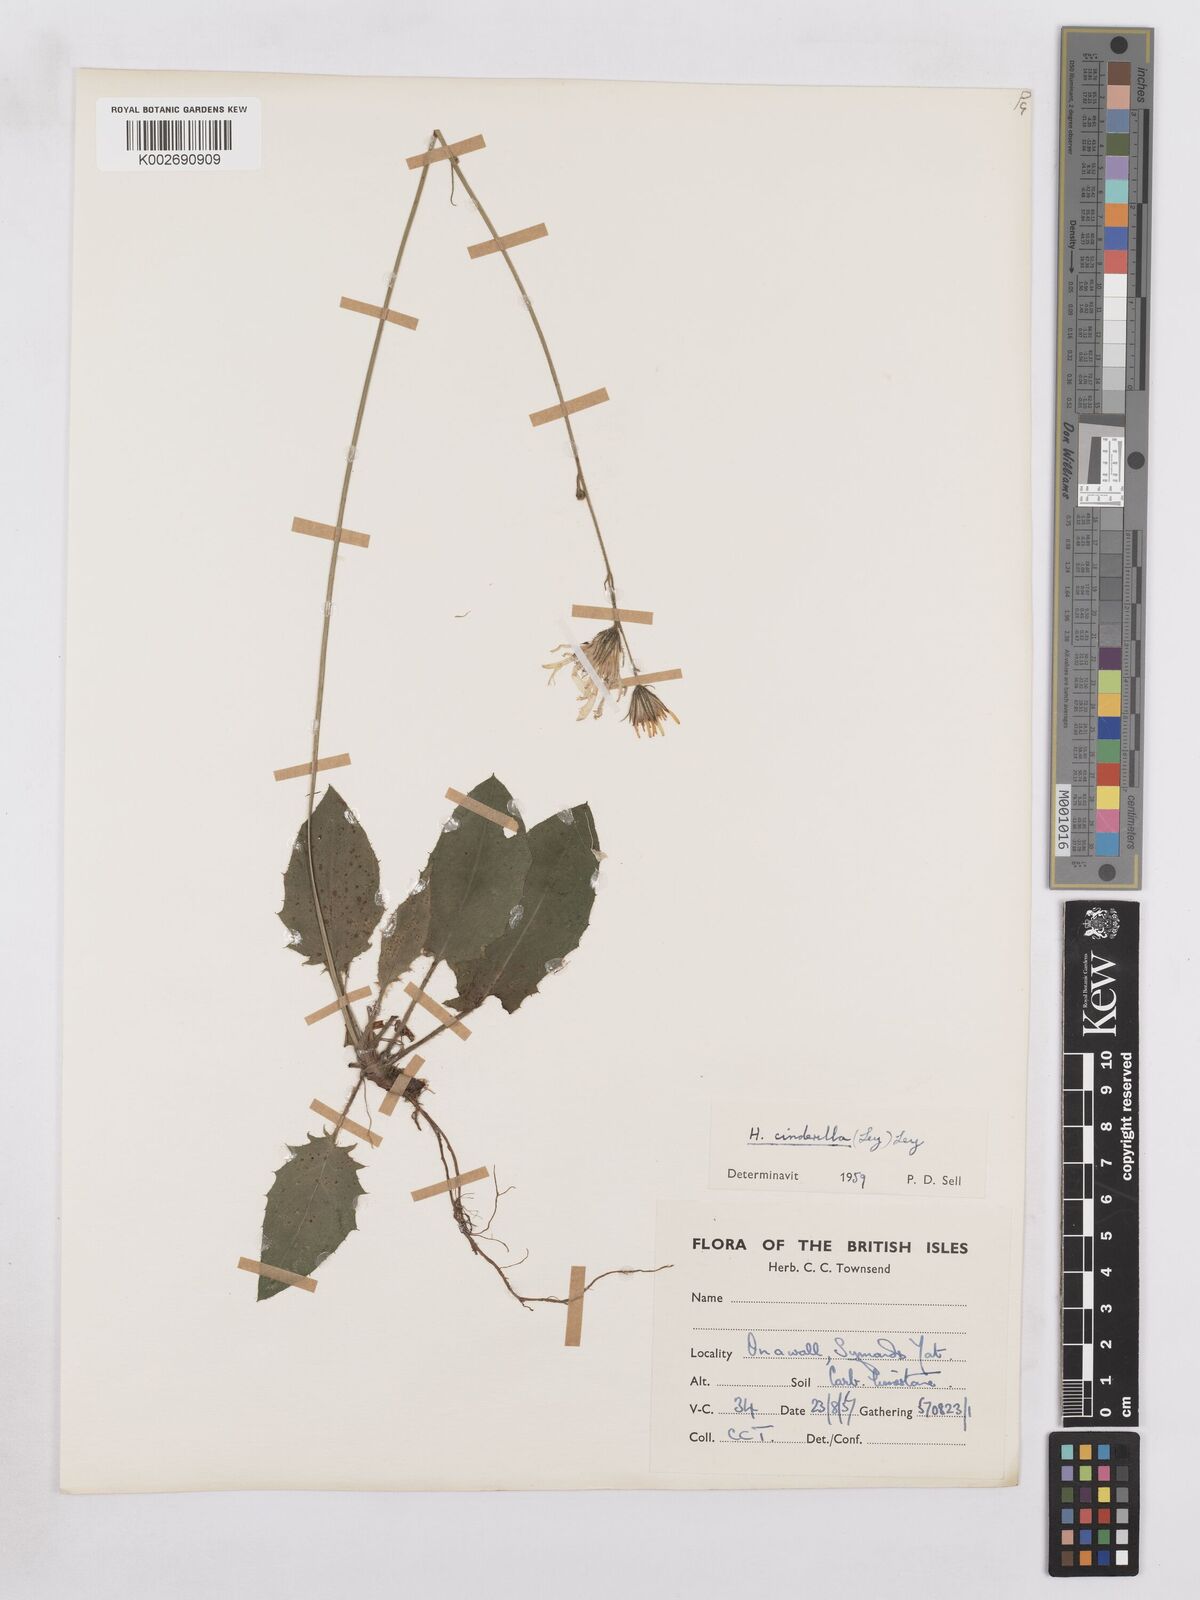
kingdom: Plantae
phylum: Tracheophyta
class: Magnoliopsida
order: Asterales
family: Asteraceae
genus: Hieracium
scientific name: Hieracium murorum
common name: Wall hawkweed
